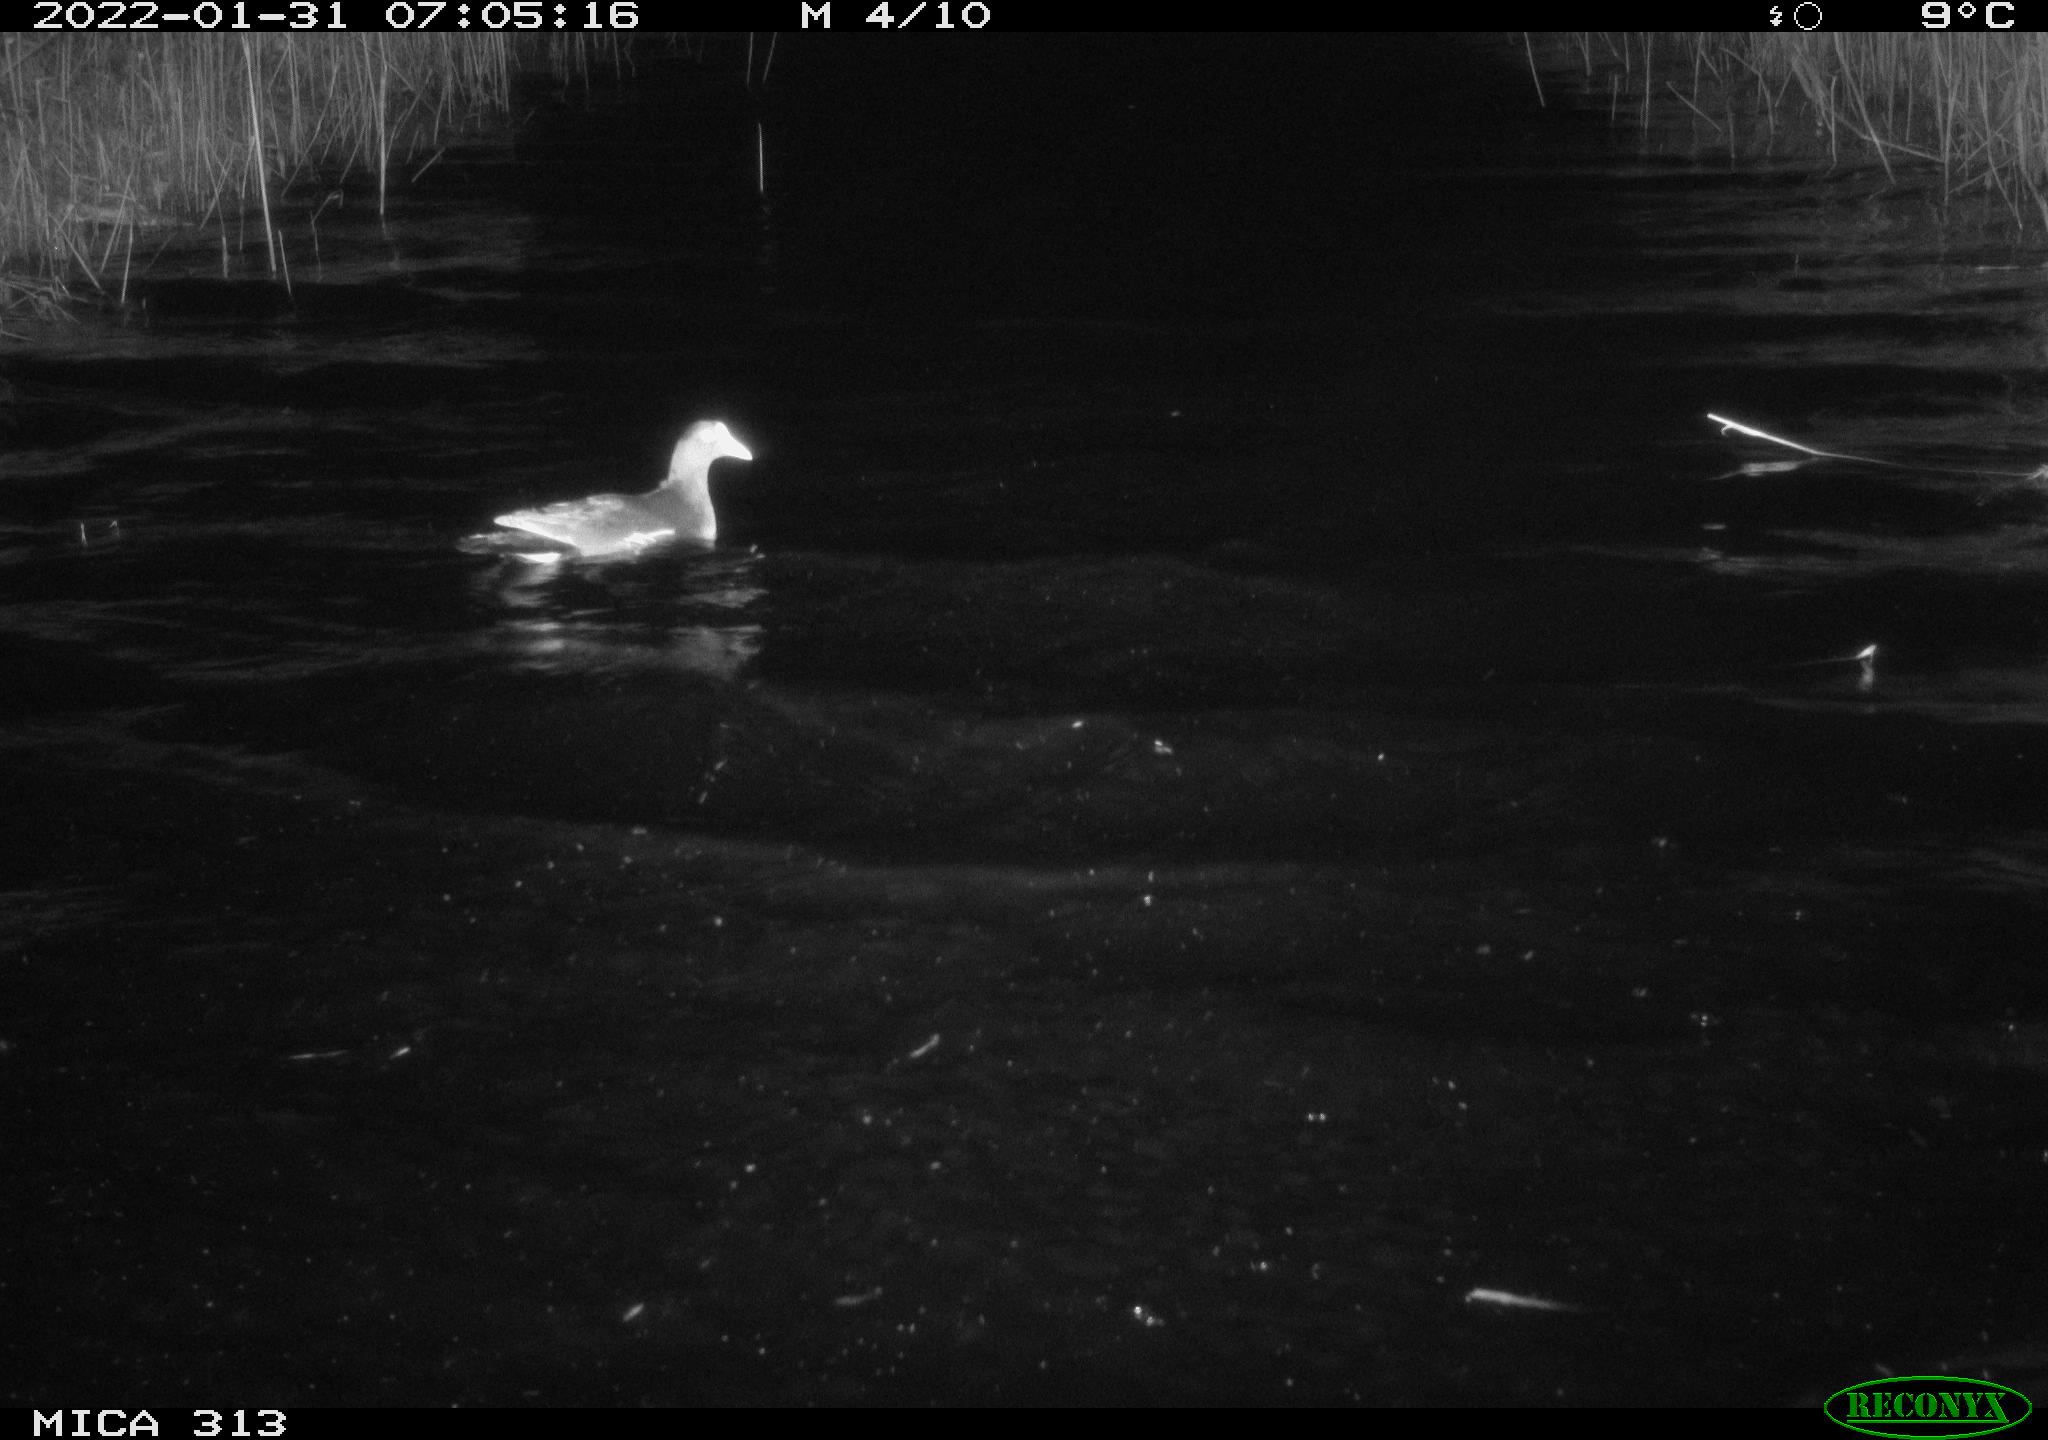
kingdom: Animalia
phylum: Chordata
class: Aves
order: Anseriformes
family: Anatidae
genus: Mareca
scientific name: Mareca strepera
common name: Gadwall
